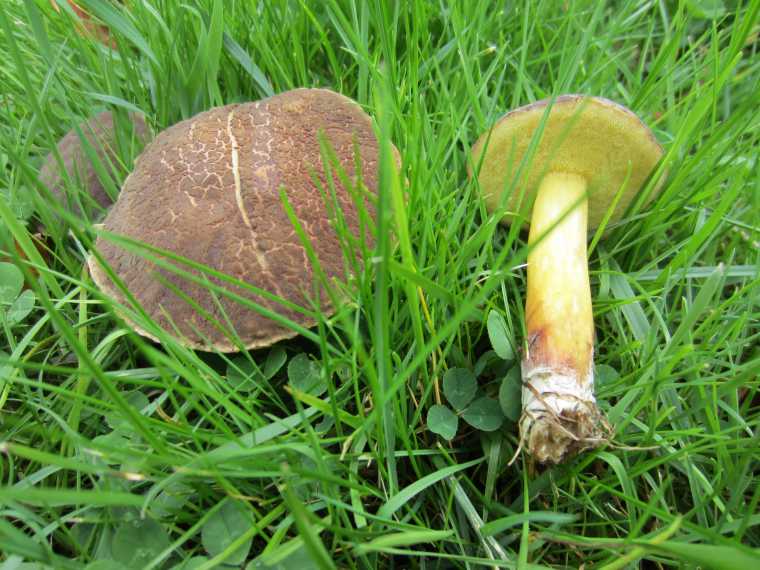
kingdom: Fungi
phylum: Basidiomycota
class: Agaricomycetes
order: Boletales
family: Boletaceae
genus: Xerocomellus
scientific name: Xerocomellus cisalpinus
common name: finsprukken rørhat
